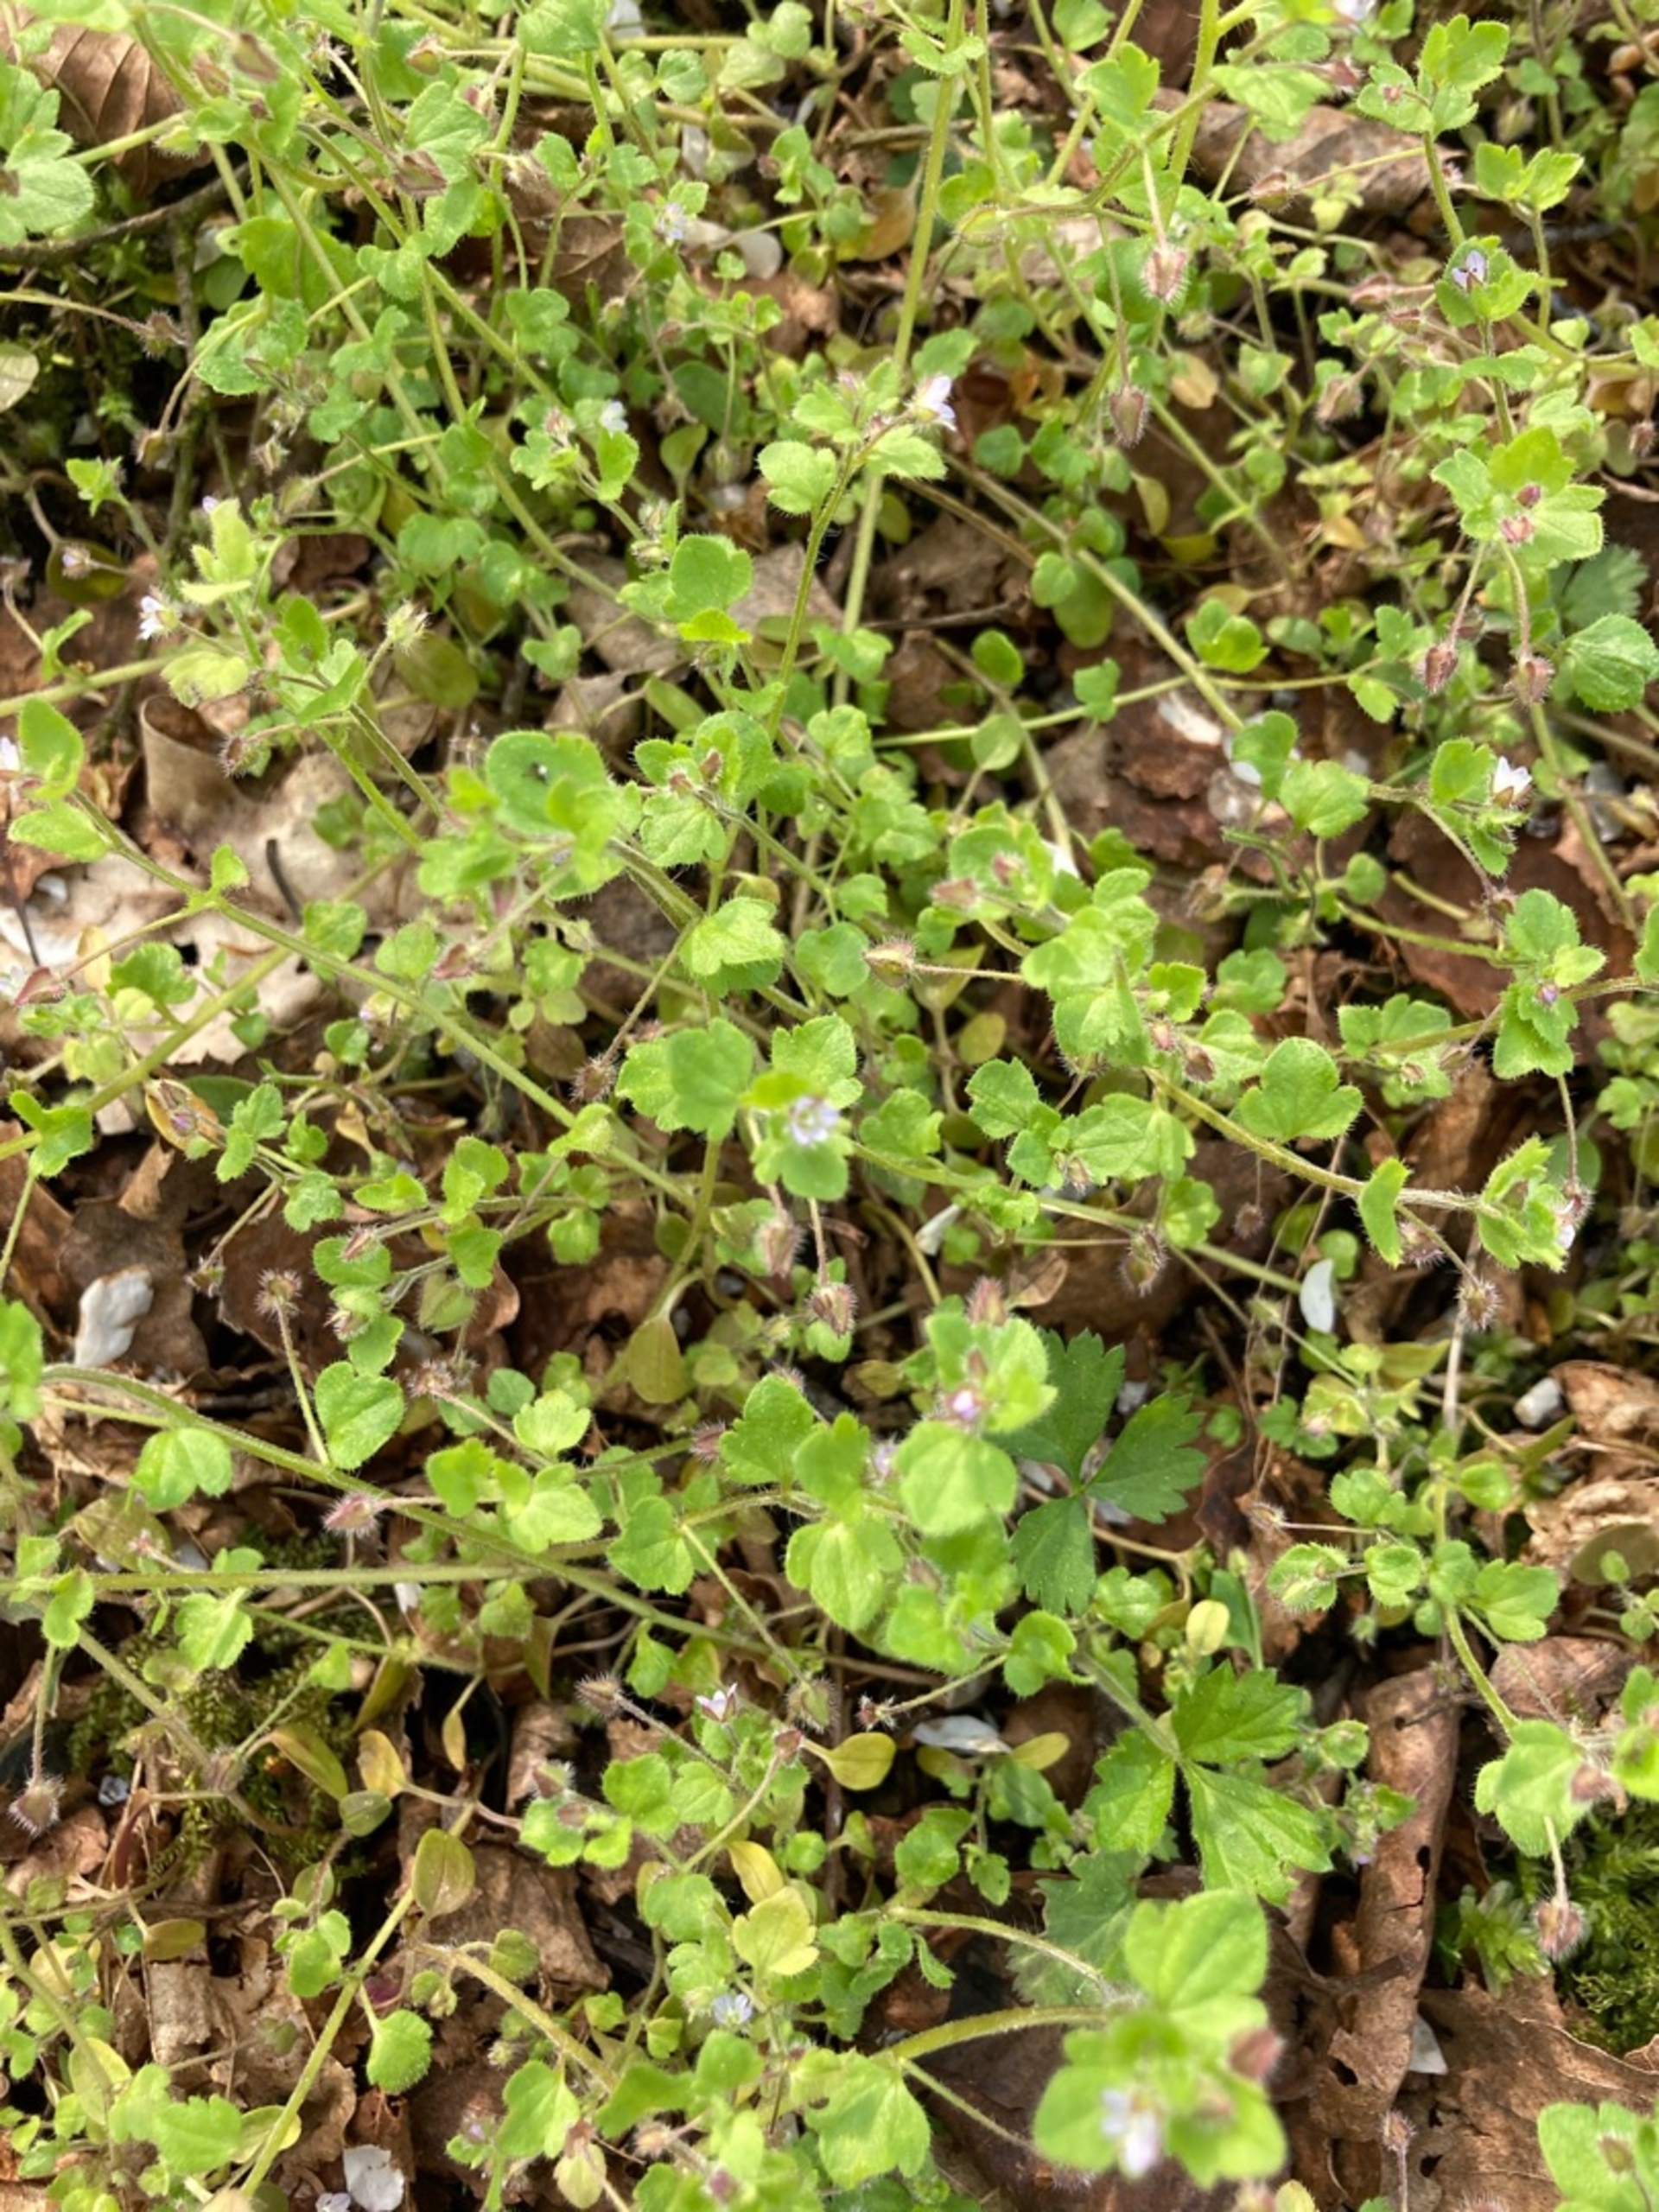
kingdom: Plantae
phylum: Tracheophyta
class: Magnoliopsida
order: Lamiales
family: Plantaginaceae
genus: Veronica
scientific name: Veronica hederifolia
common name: Vedbend-ærenpris
